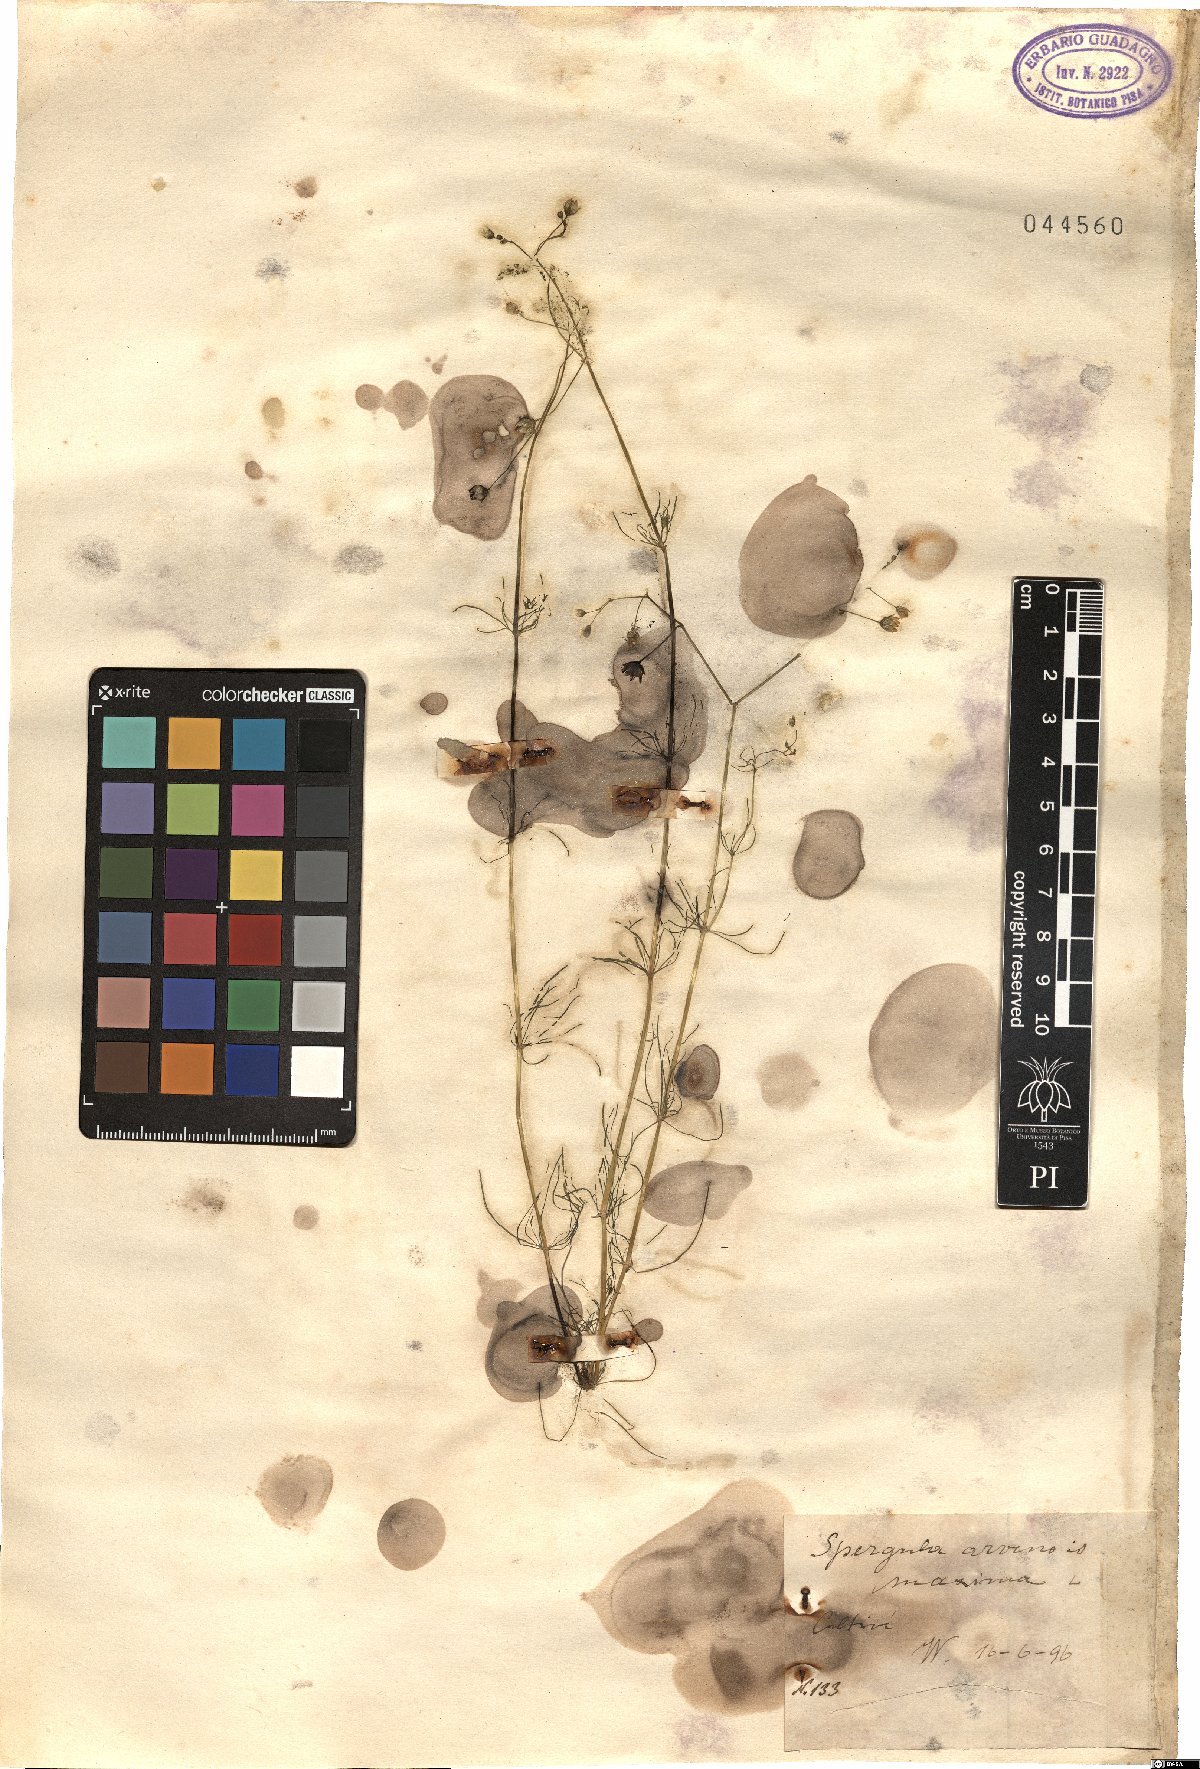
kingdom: Plantae
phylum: Tracheophyta
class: Magnoliopsida
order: Caryophyllales
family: Caryophyllaceae
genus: Spergula
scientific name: Spergula arvensis
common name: Corn spurrey
